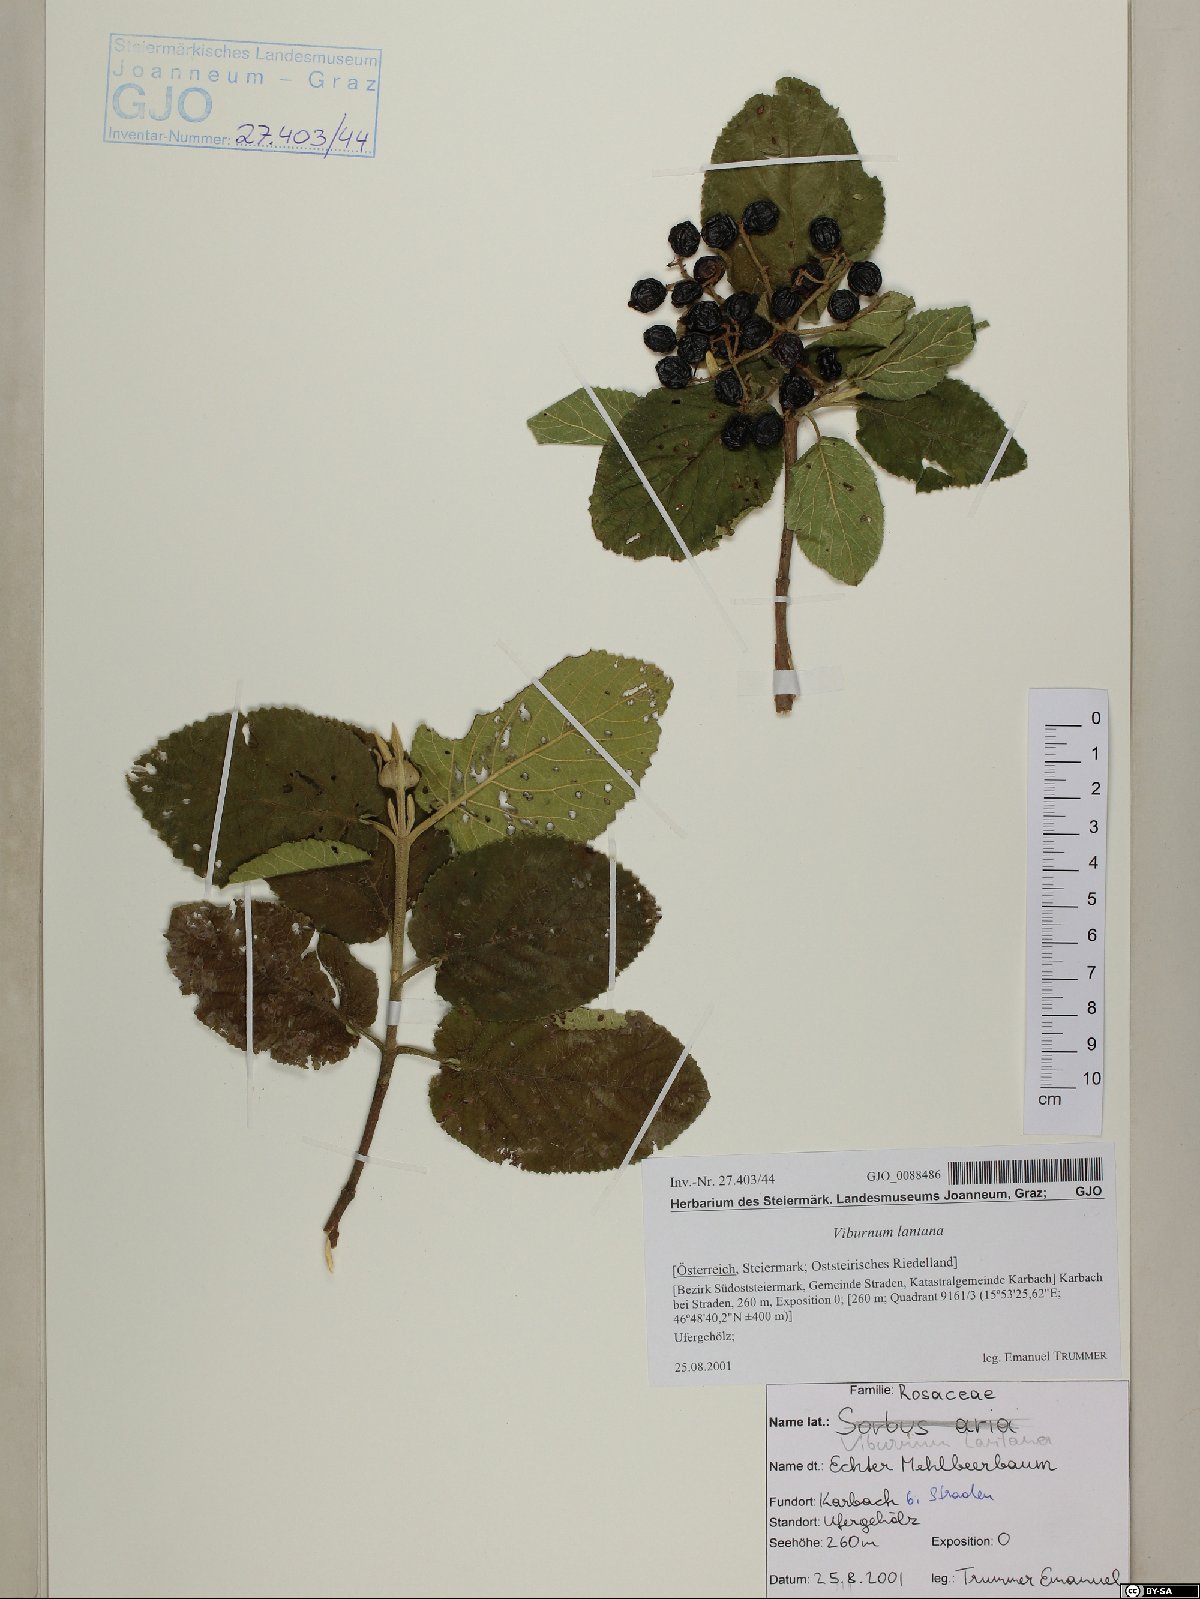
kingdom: Plantae
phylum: Tracheophyta
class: Magnoliopsida
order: Dipsacales
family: Viburnaceae
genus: Viburnum
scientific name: Viburnum lantana
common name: Wayfaring tree
